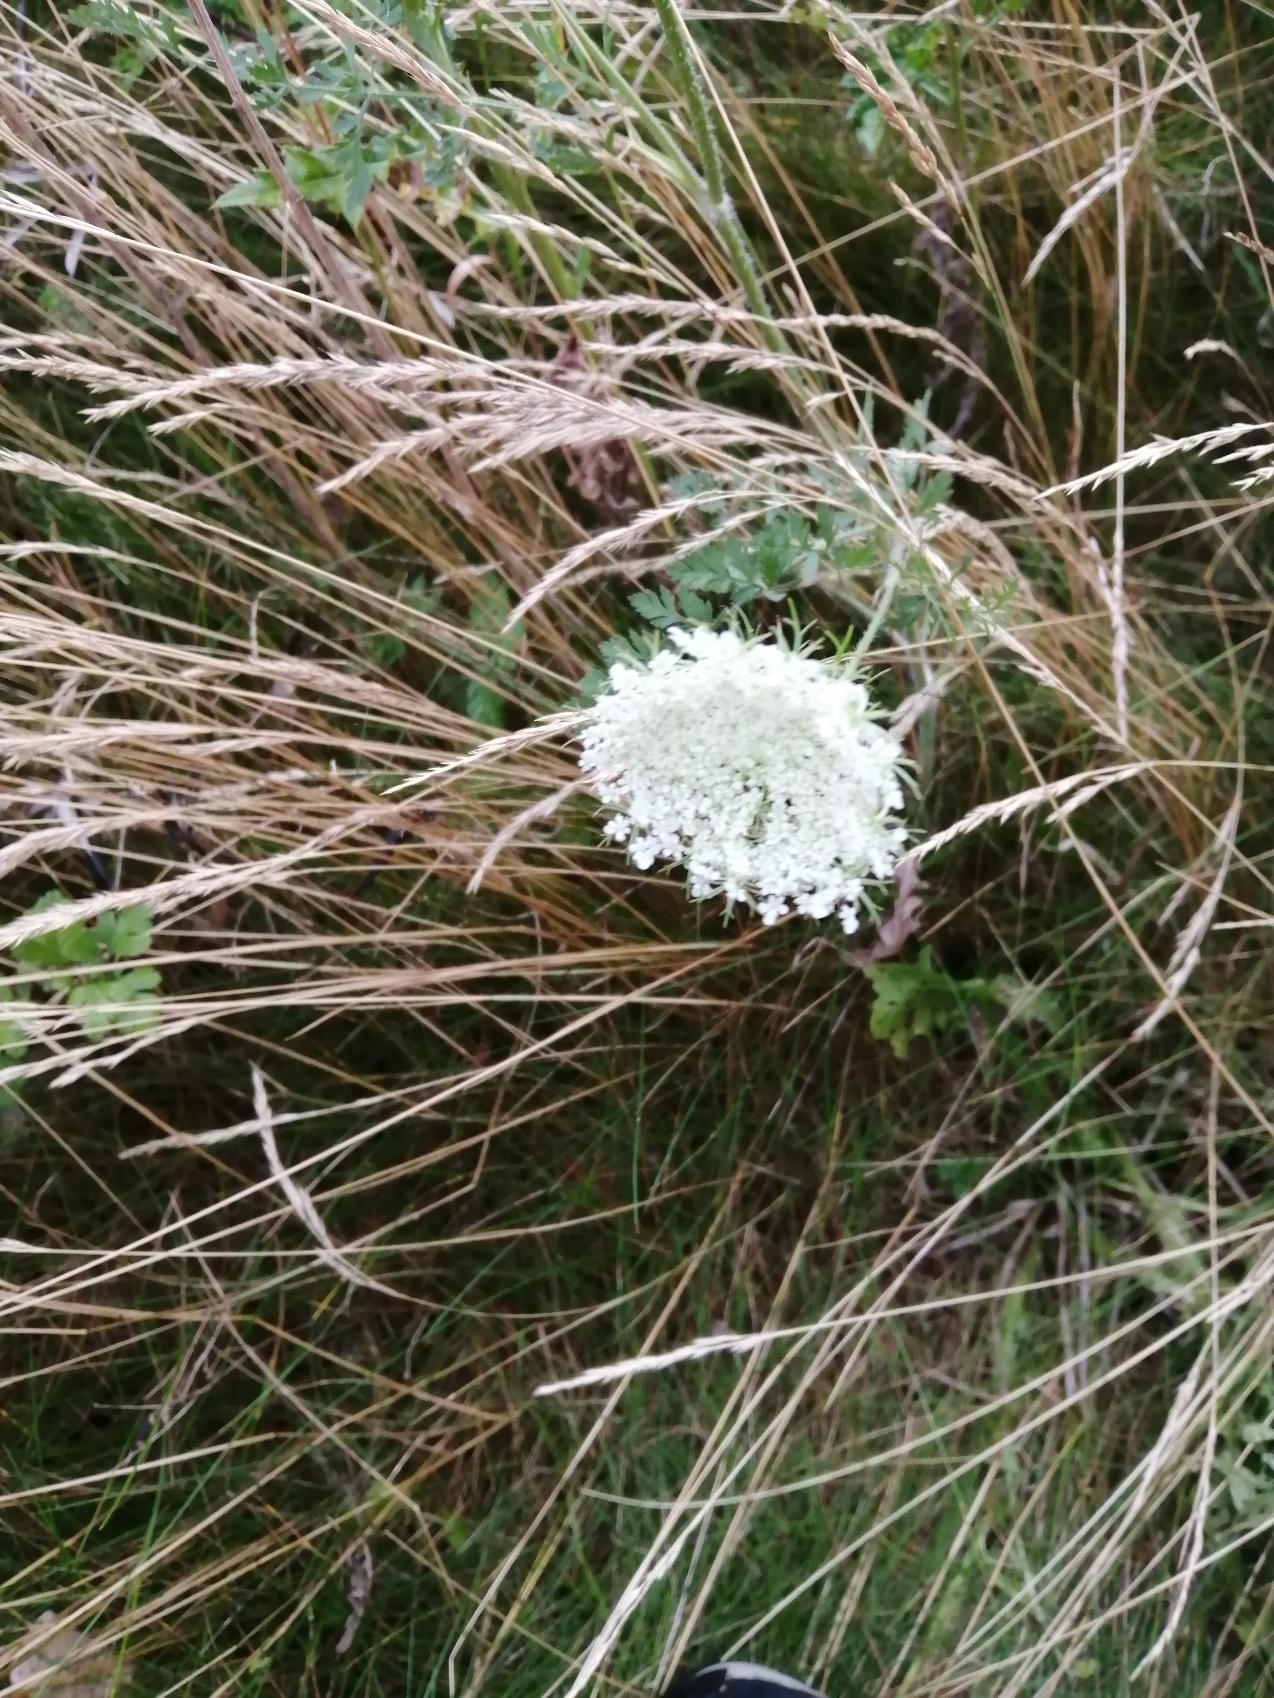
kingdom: Plantae
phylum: Tracheophyta
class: Magnoliopsida
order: Apiales
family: Apiaceae
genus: Daucus
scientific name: Daucus carota
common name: Gulerod
